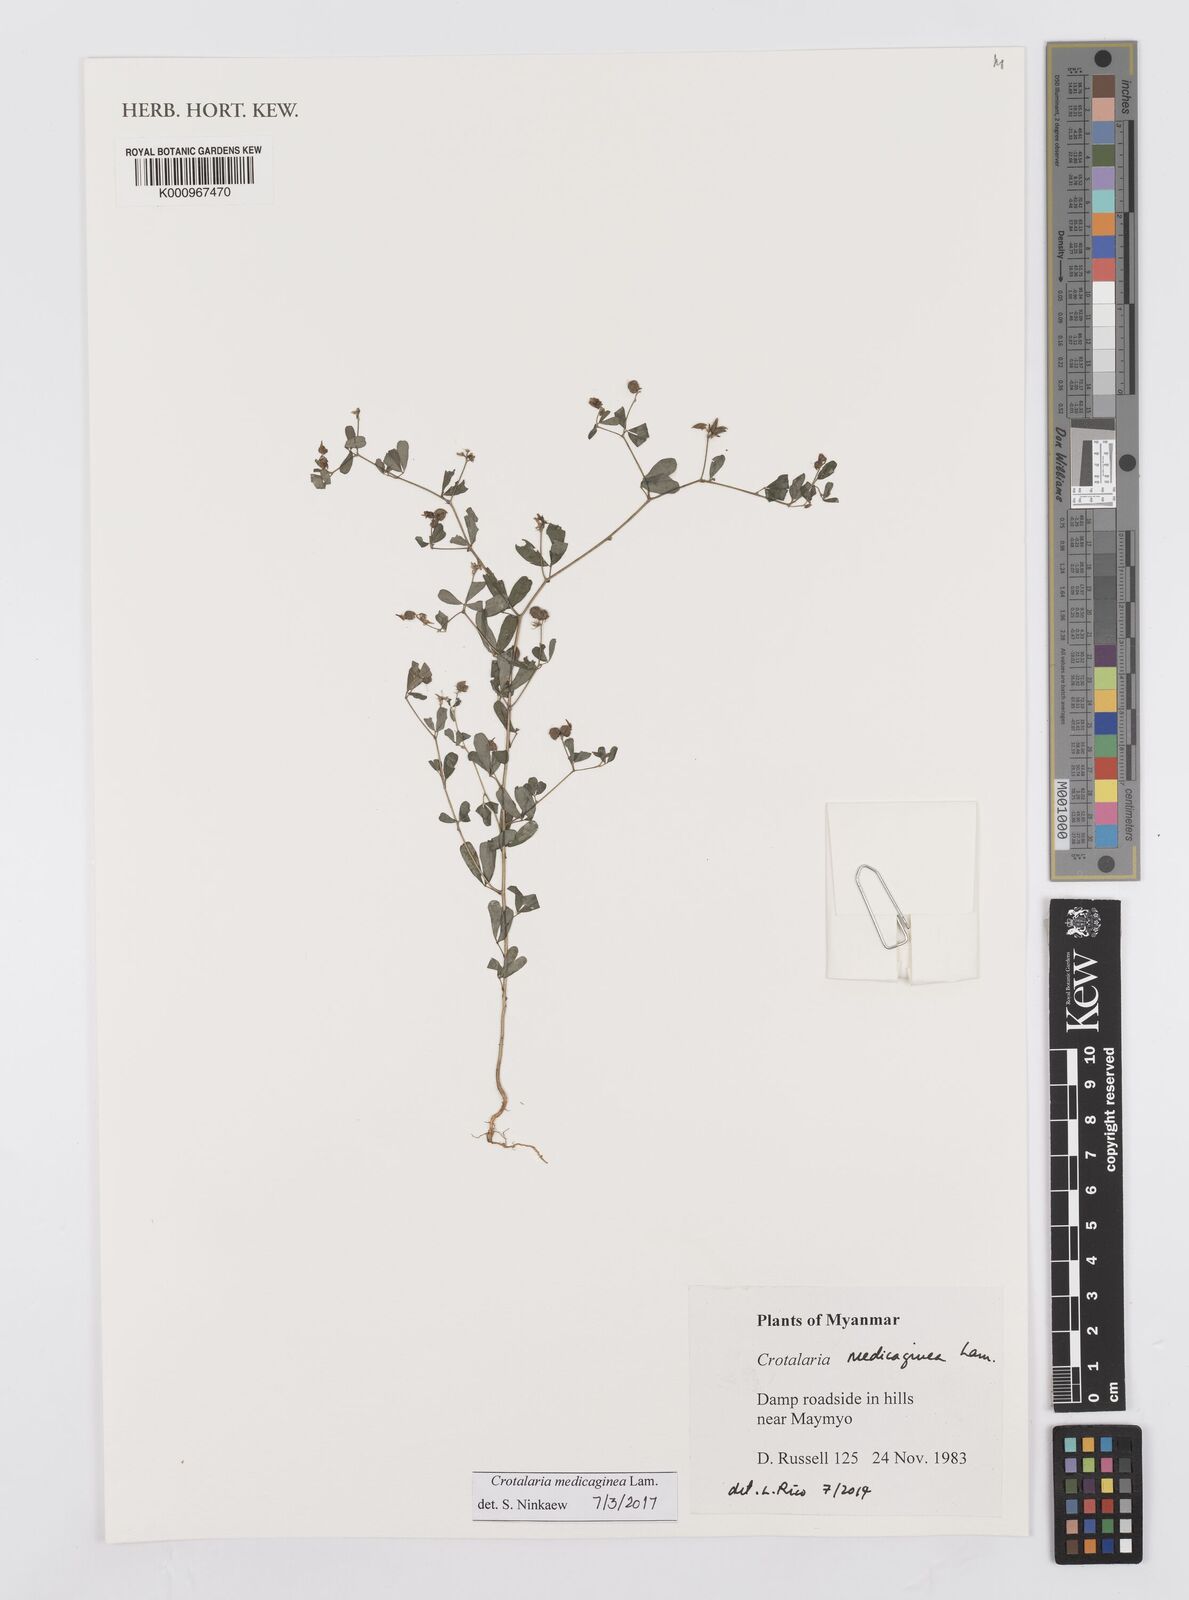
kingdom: Plantae
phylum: Tracheophyta
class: Magnoliopsida
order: Fabales
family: Fabaceae
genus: Crotalaria
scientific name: Crotalaria medicaginea
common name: Trefoil rattlepod
